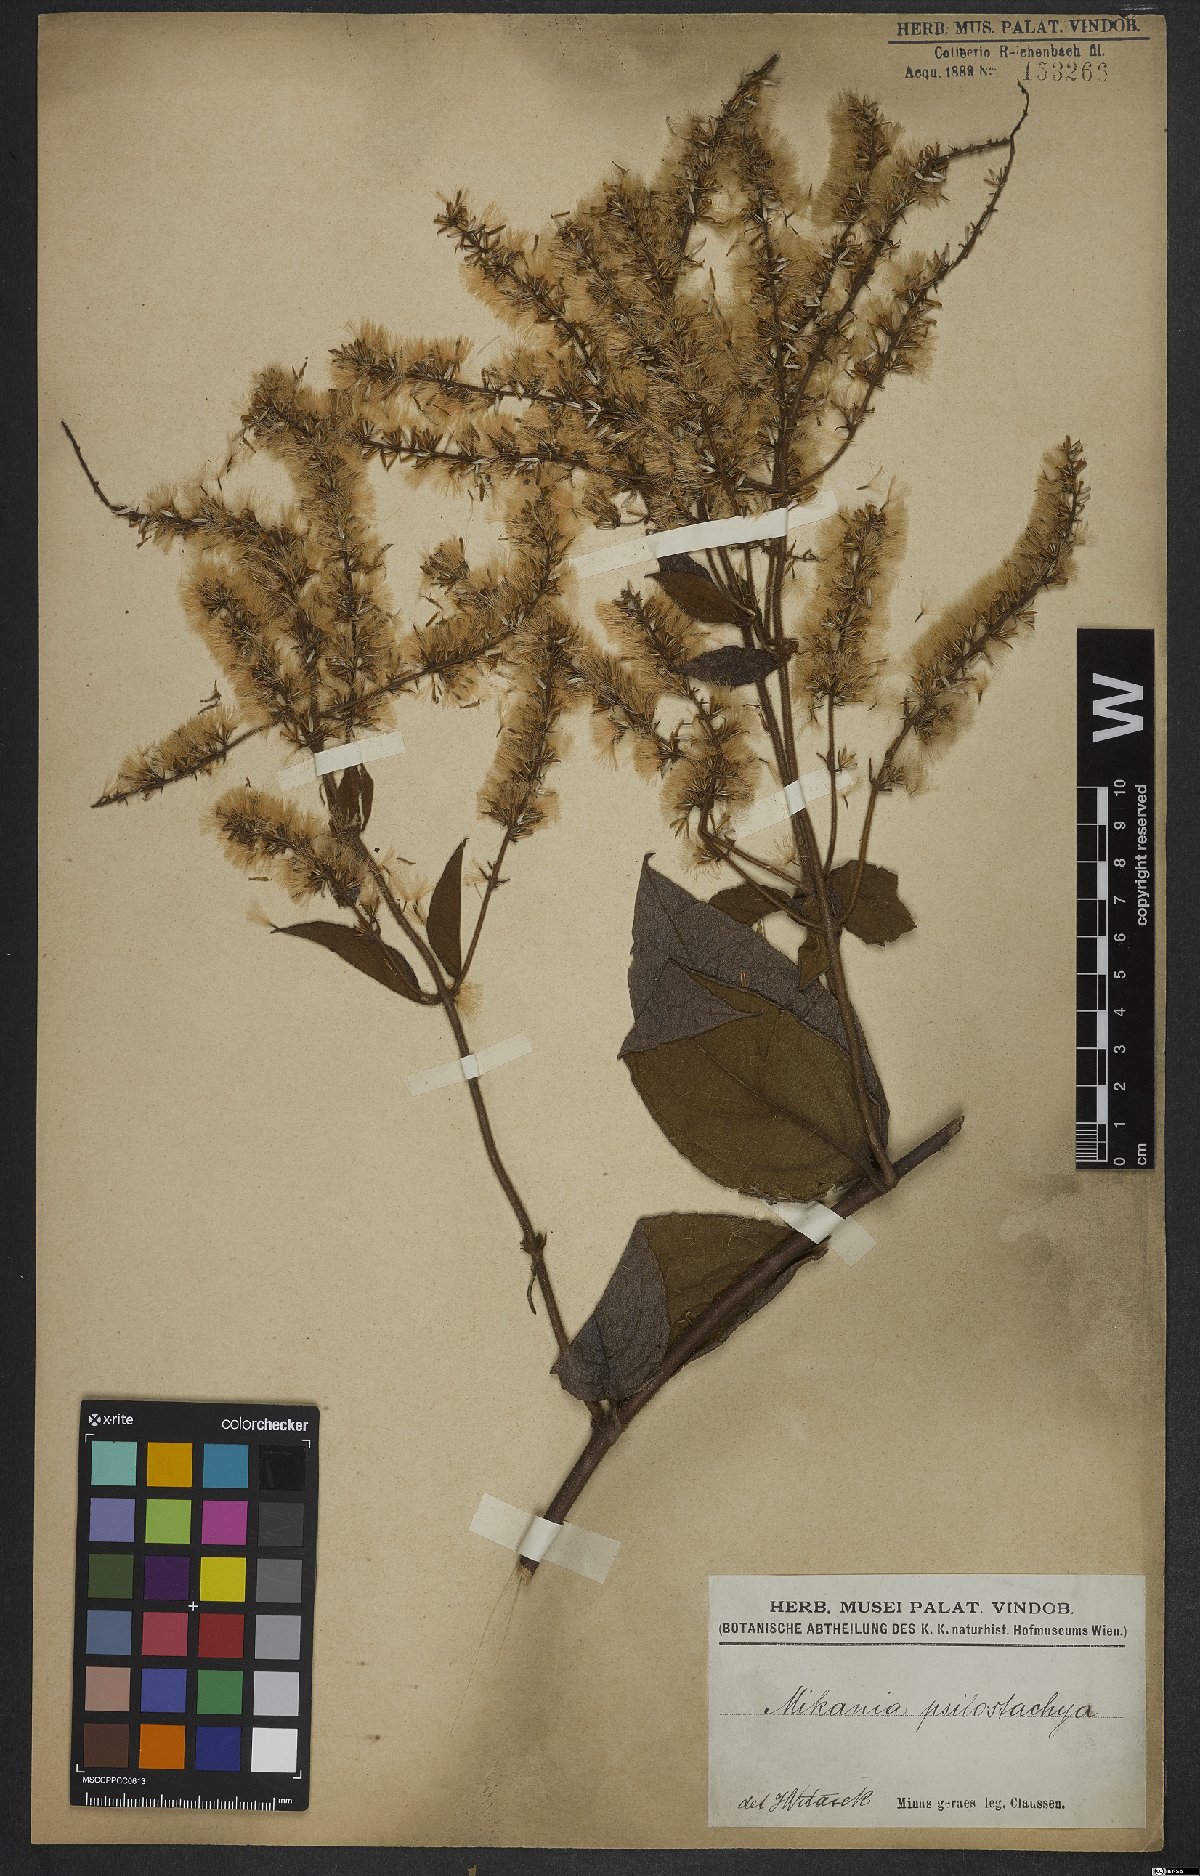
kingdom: Plantae
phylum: Tracheophyta
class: Magnoliopsida
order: Asterales
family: Asteraceae
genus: Mikania
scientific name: Mikania psilostachya
